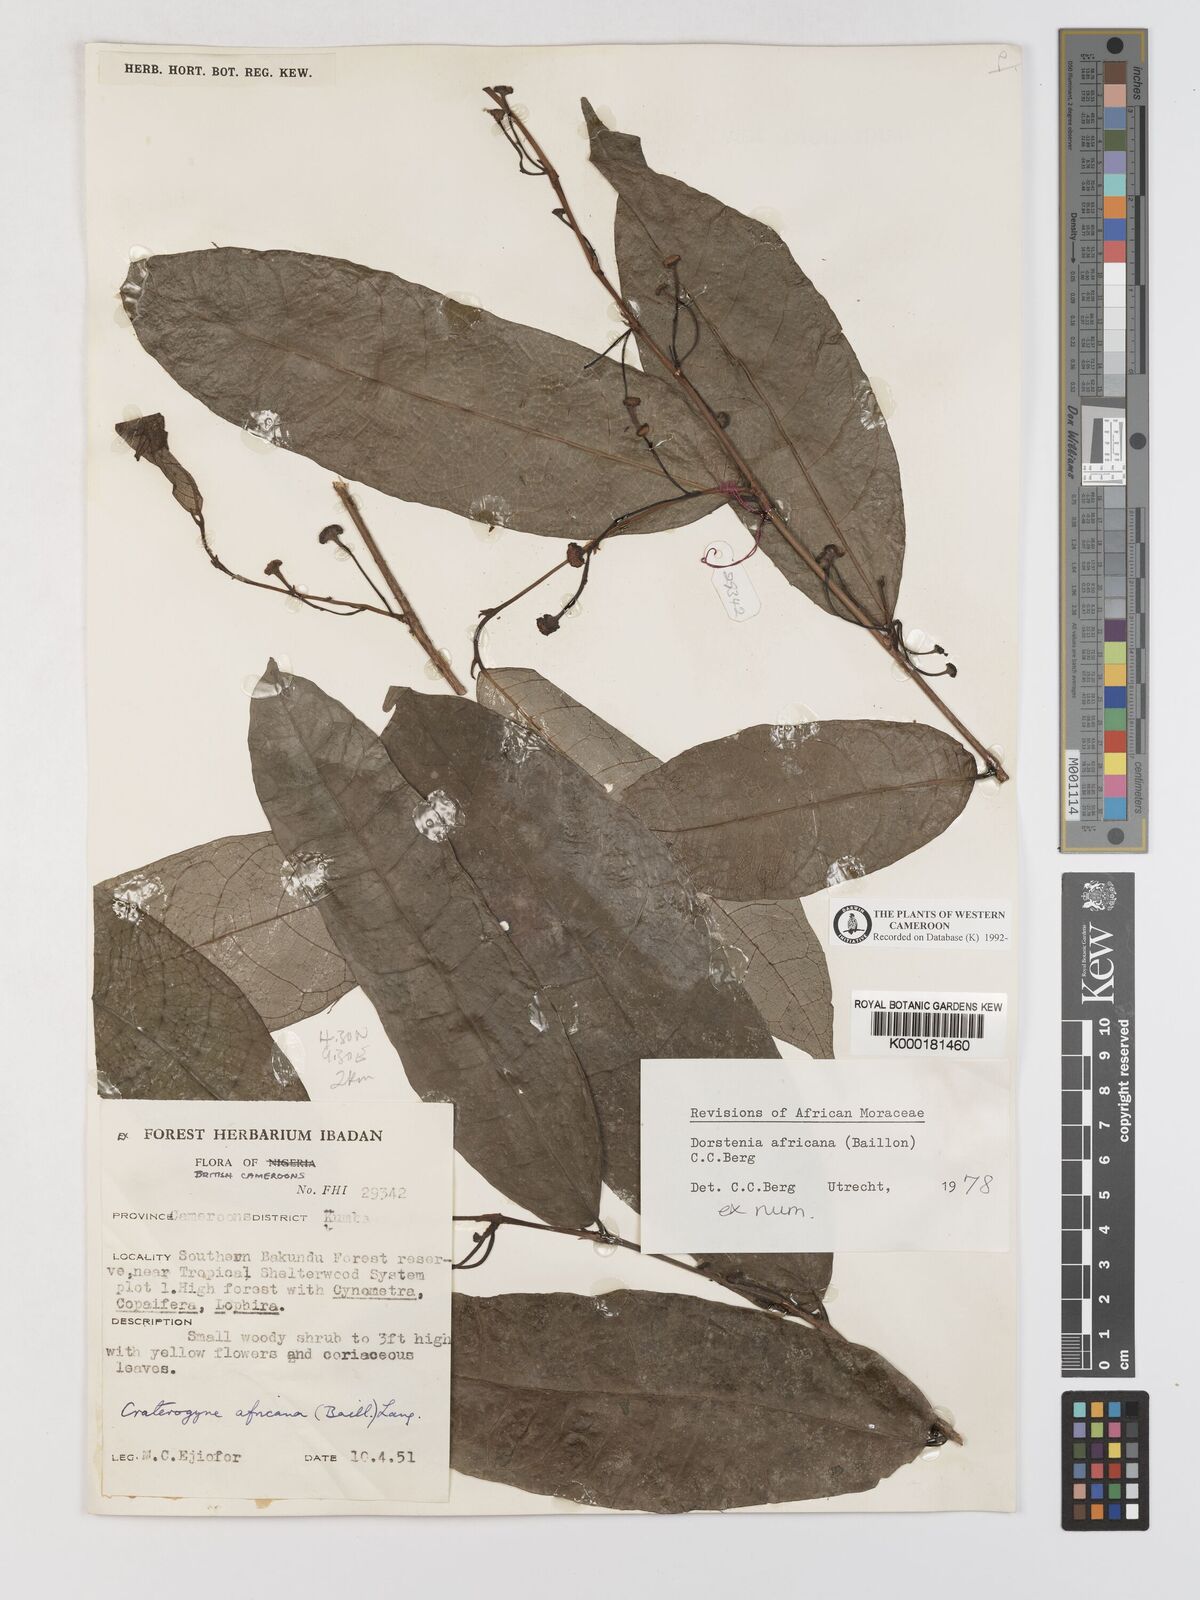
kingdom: Plantae
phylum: Tracheophyta
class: Magnoliopsida
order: Rosales
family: Moraceae
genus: Dorstenia
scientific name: Dorstenia africana
